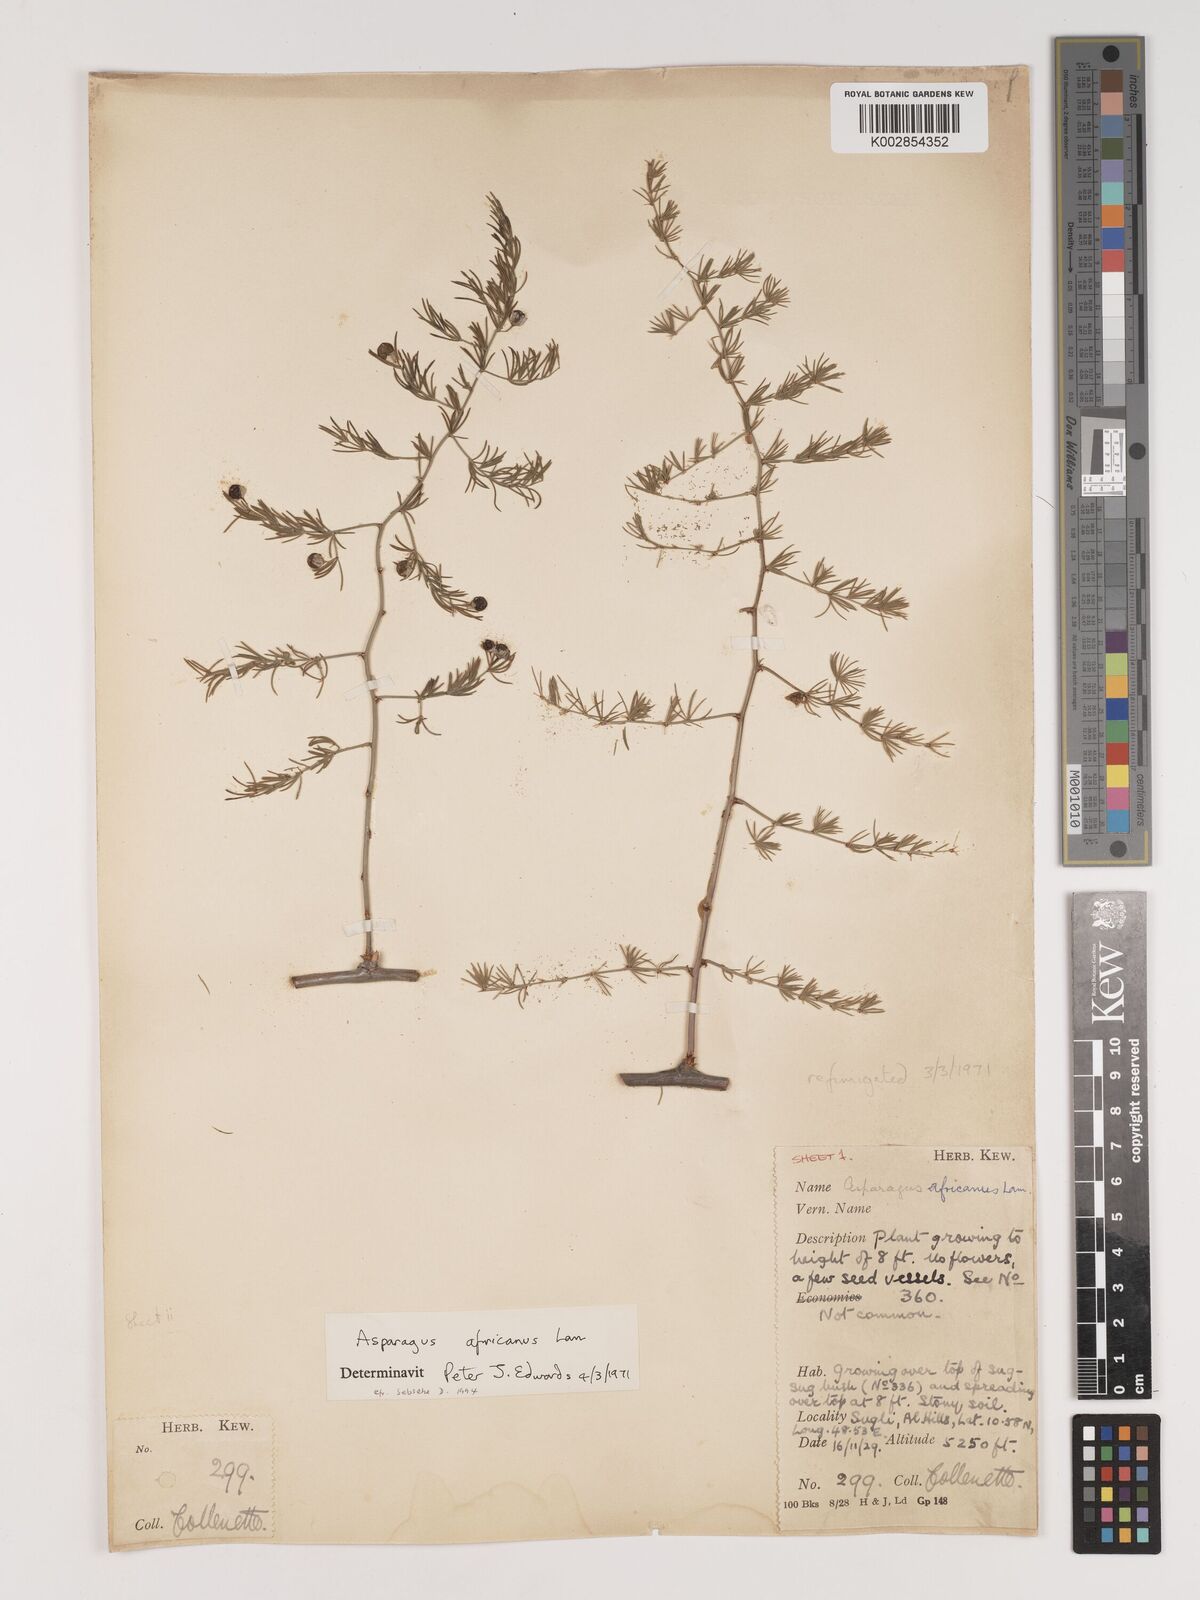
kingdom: Plantae
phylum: Tracheophyta
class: Liliopsida
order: Asparagales
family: Asparagaceae
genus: Asparagus
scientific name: Asparagus africanus
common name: Asparagus-fern
